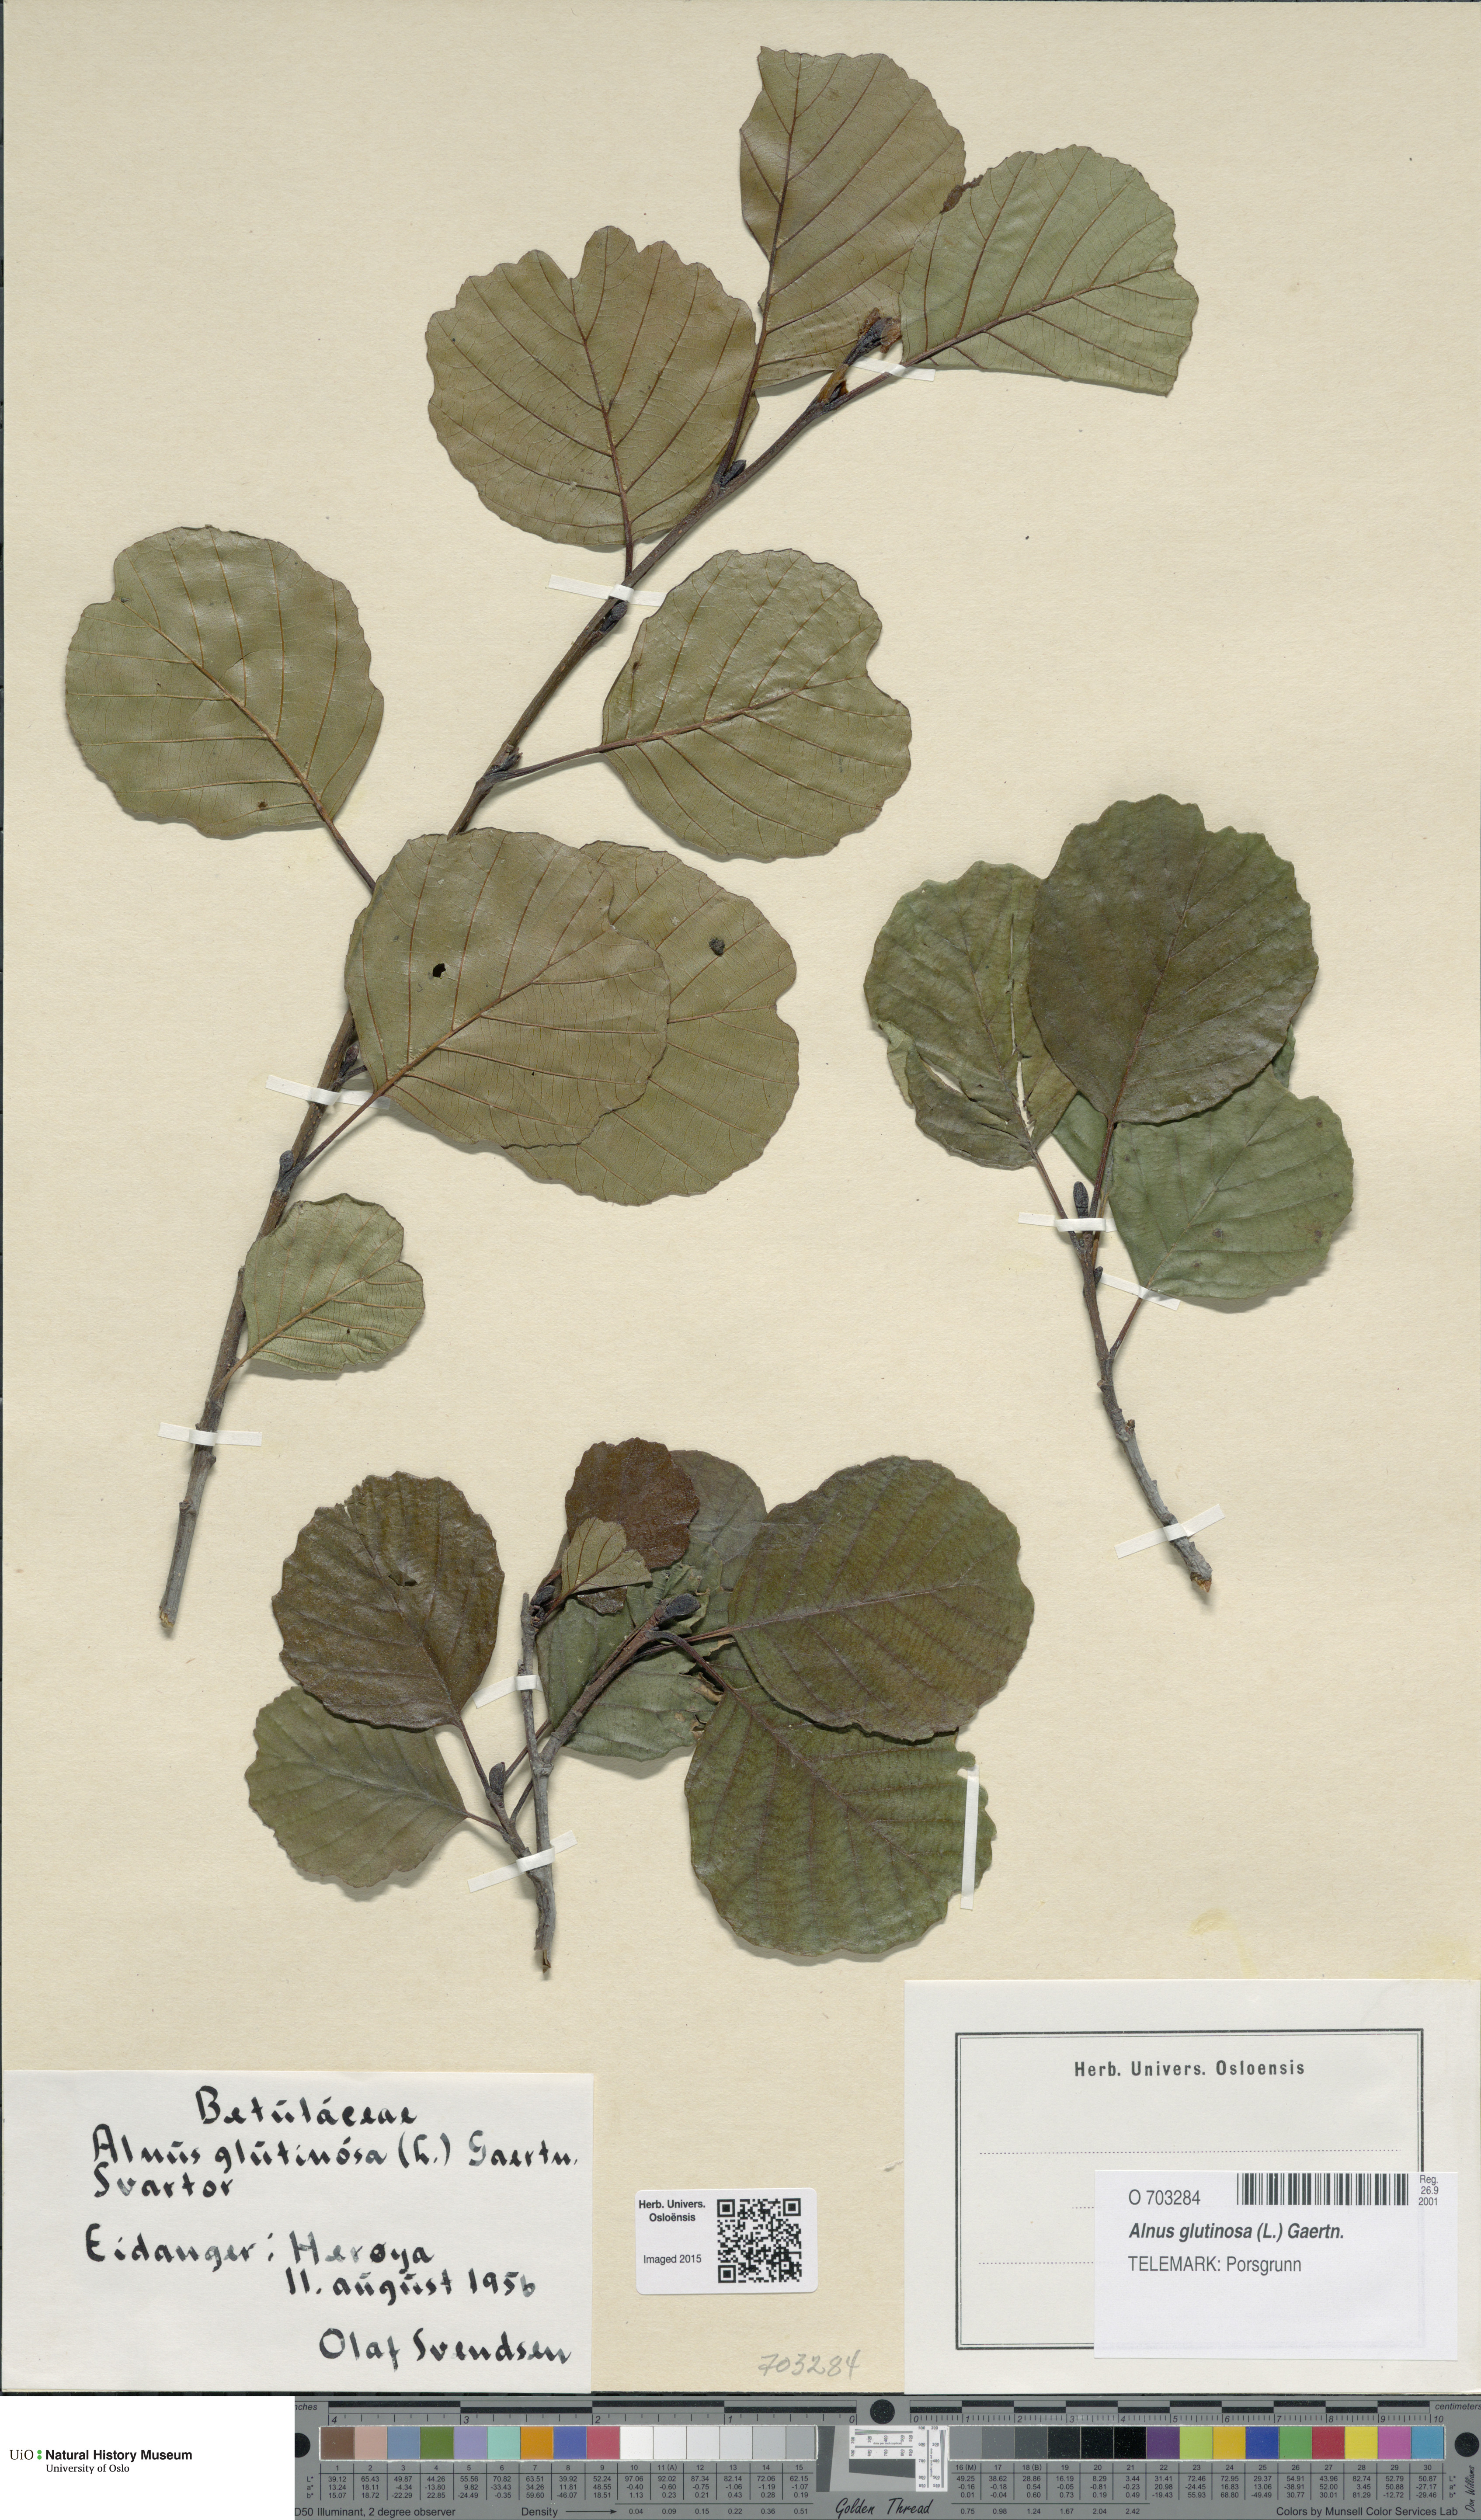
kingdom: Plantae
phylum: Tracheophyta
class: Magnoliopsida
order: Fagales
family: Betulaceae
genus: Alnus
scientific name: Alnus glutinosa
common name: Black alder
